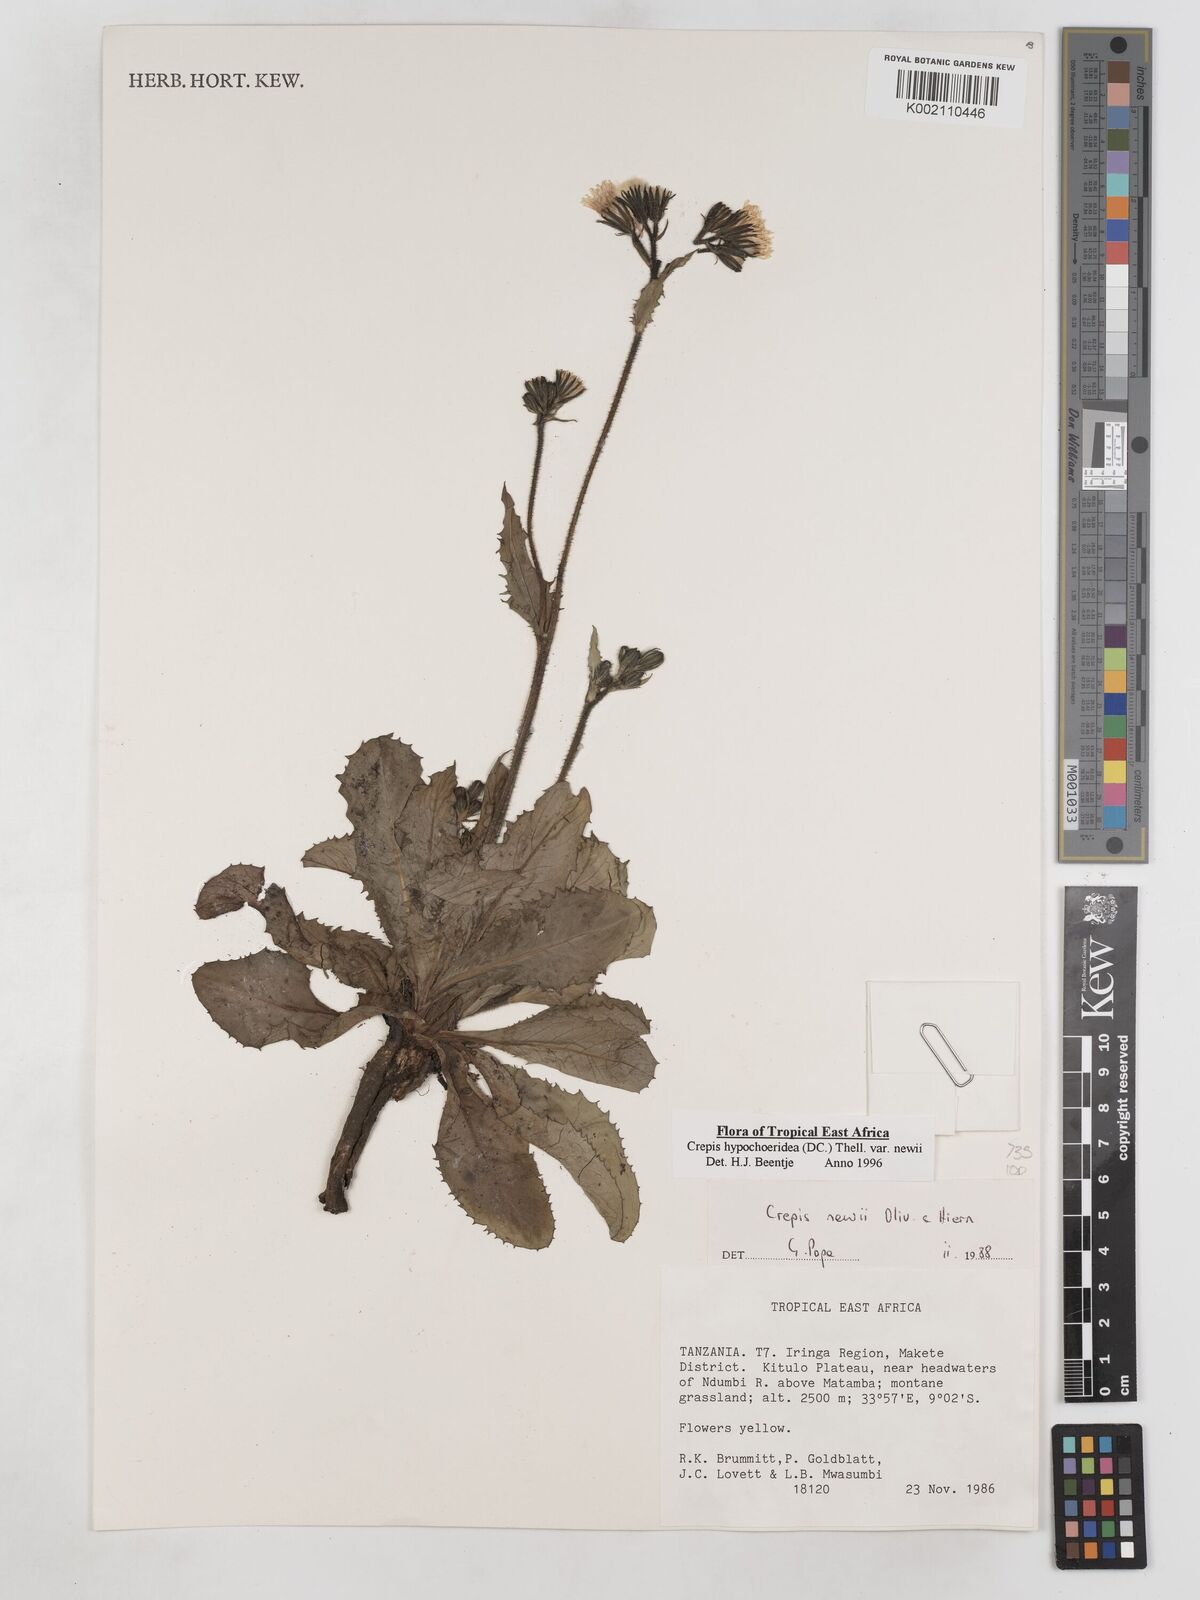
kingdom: Plantae
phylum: Tracheophyta
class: Magnoliopsida
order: Asterales
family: Asteraceae
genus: Crepis
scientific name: Crepis hypochoeridea
